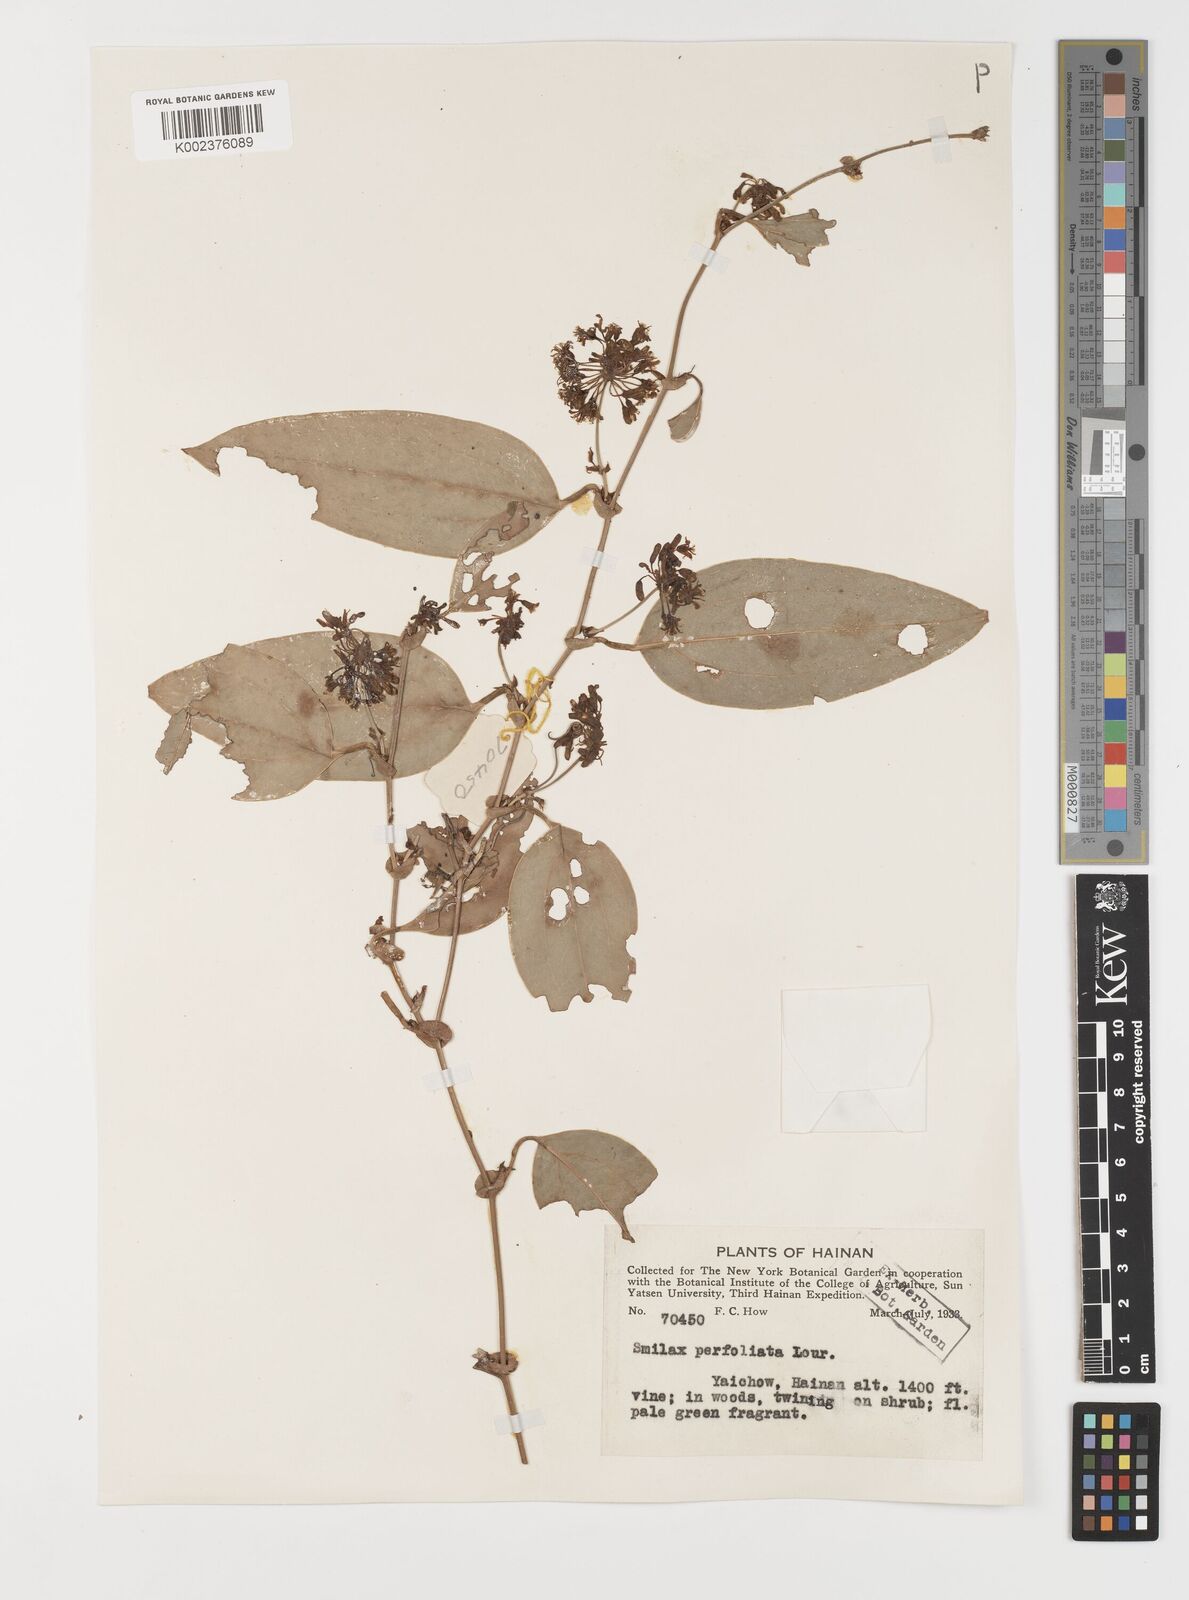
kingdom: Plantae
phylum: Tracheophyta
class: Liliopsida
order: Liliales
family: Smilacaceae
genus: Smilax
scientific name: Smilax ocreata
